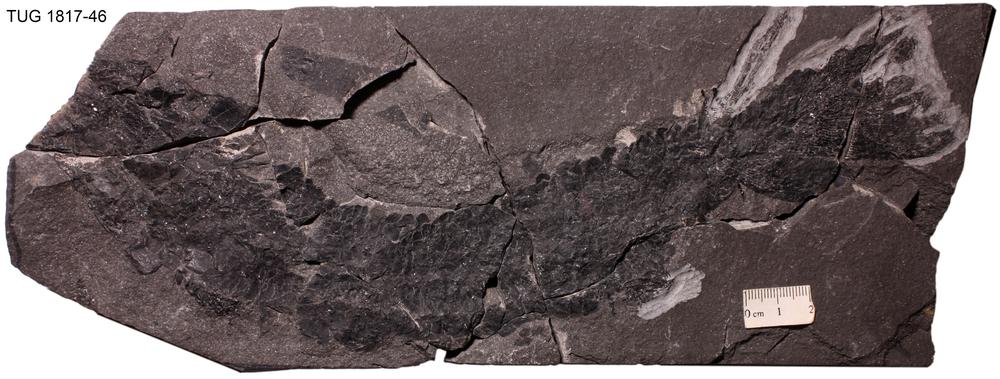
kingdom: Animalia
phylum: Chordata
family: Eusthenopteridae
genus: Tristichopterus
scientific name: Tristichopterus alatus
